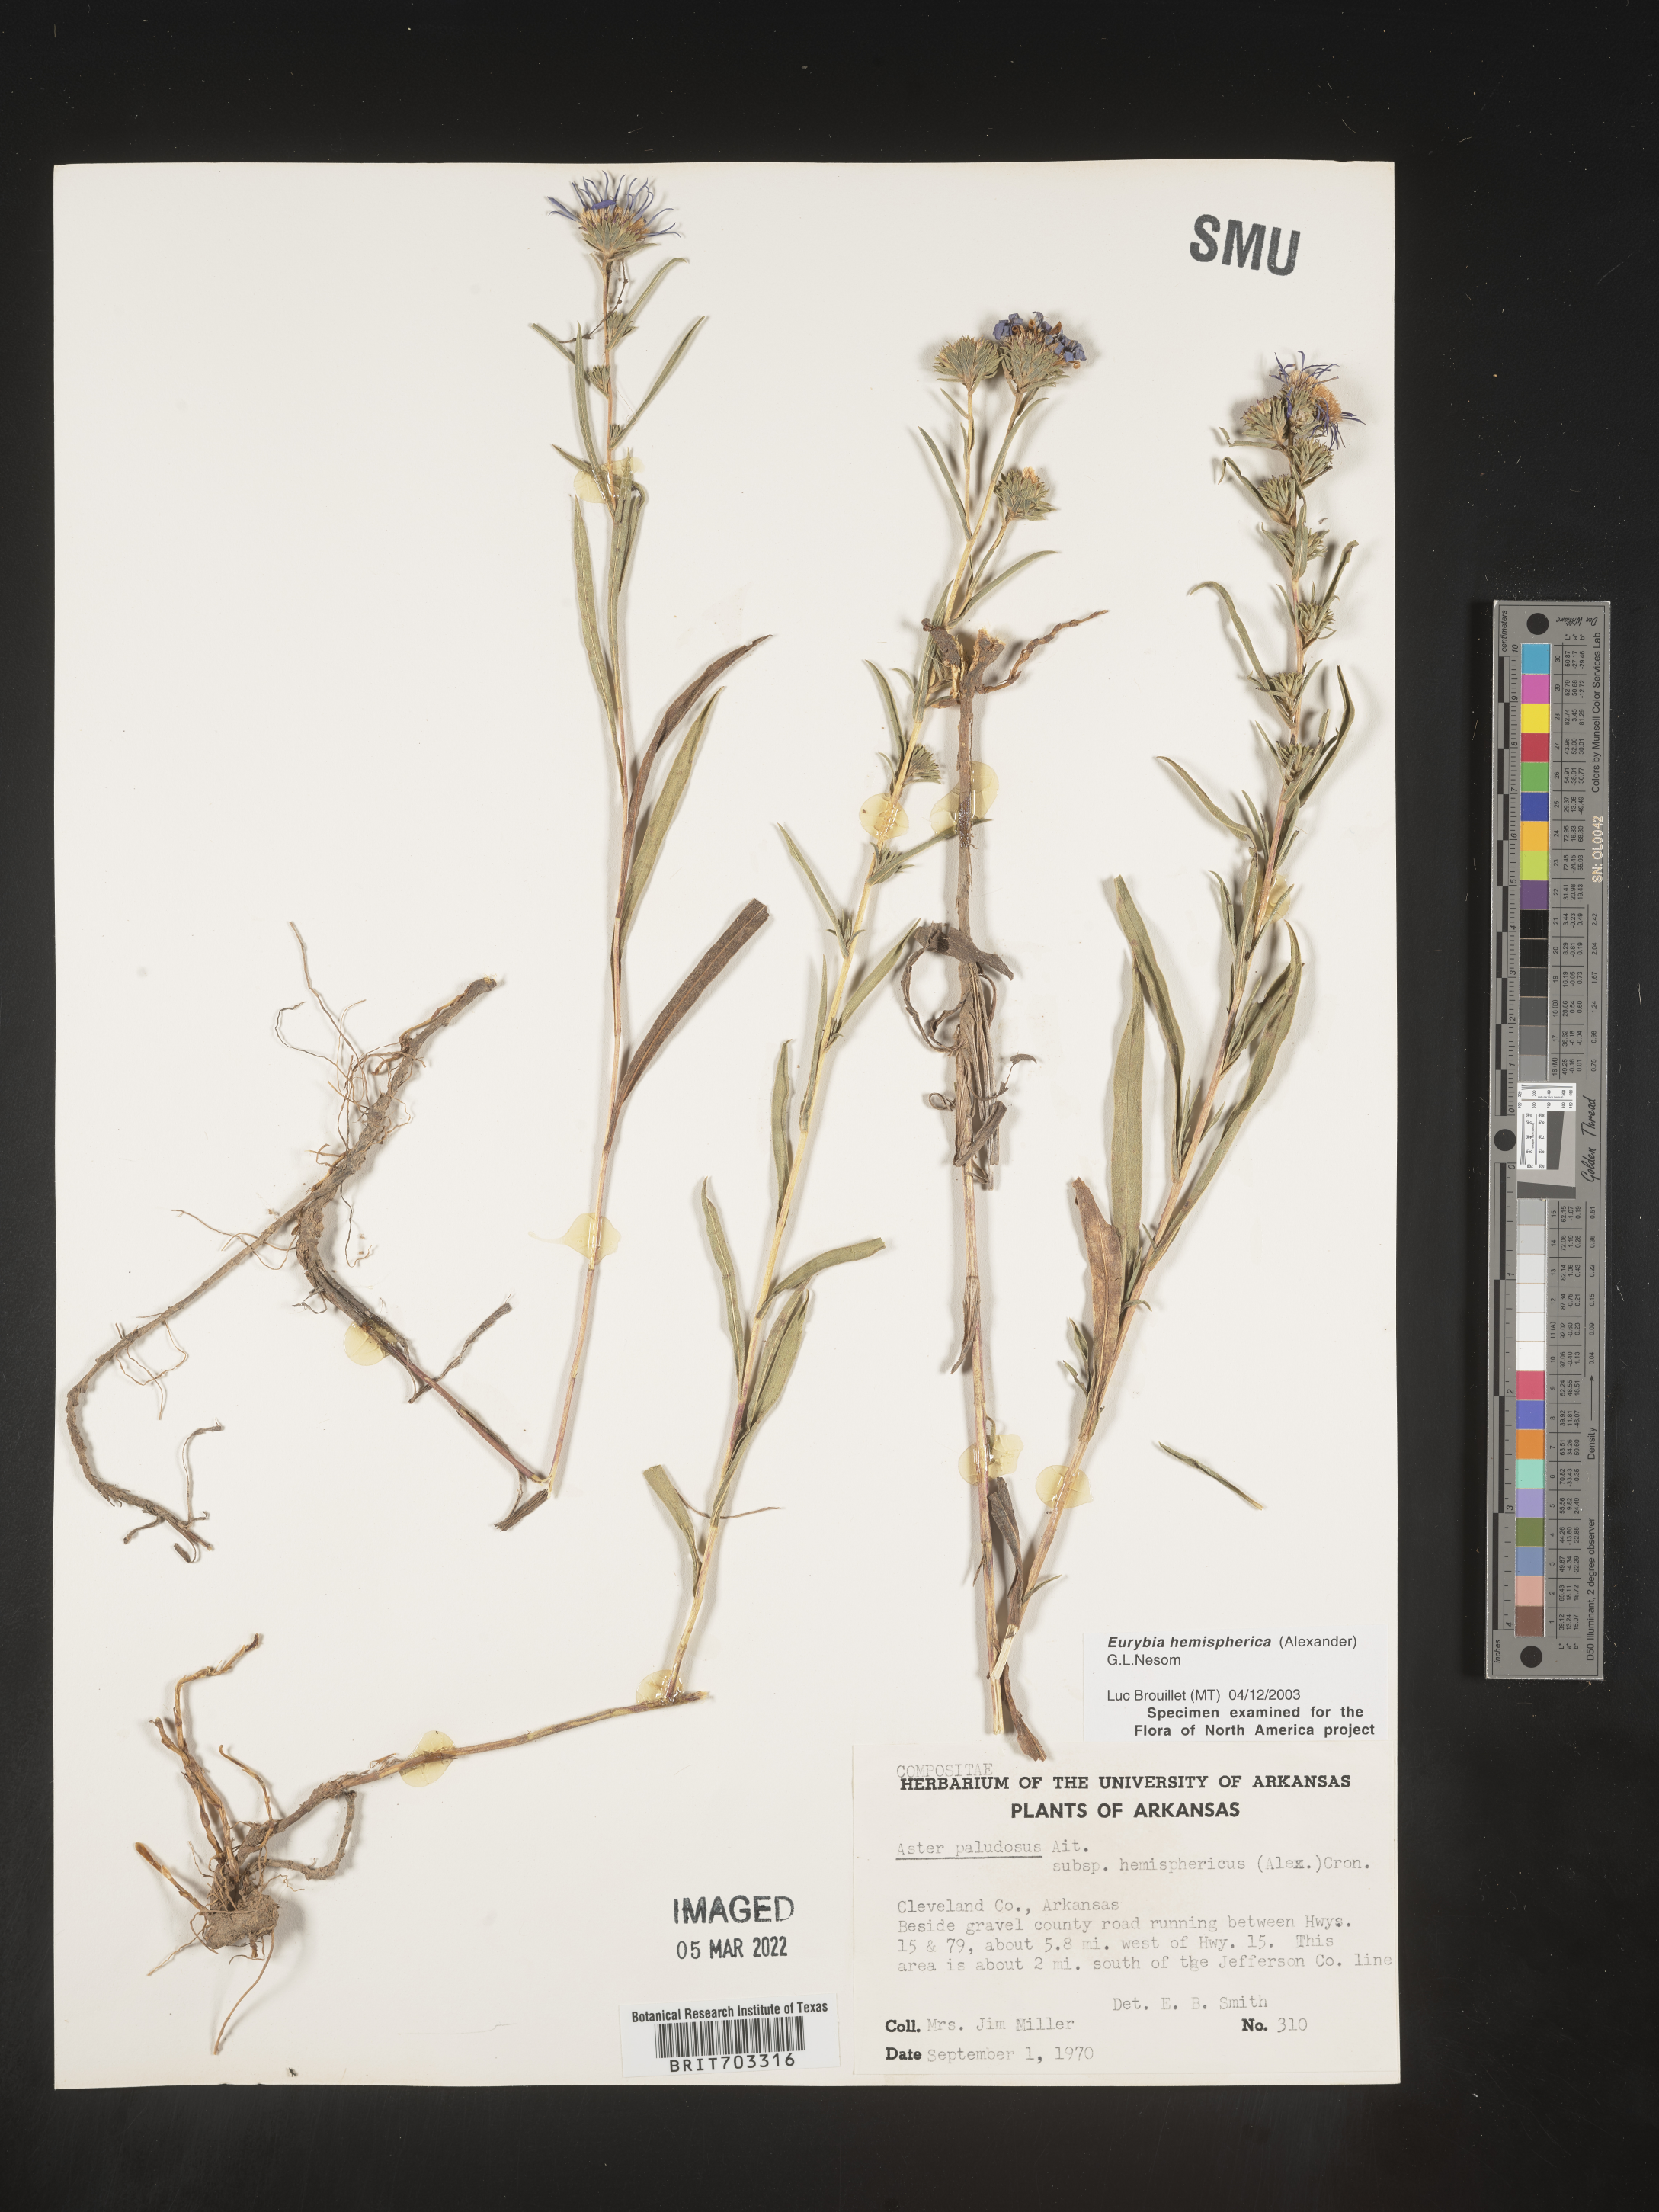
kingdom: Plantae
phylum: Tracheophyta
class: Magnoliopsida
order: Asterales
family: Asteraceae
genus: Eurybia
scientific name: Eurybia hemispherica
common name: Showy aster
